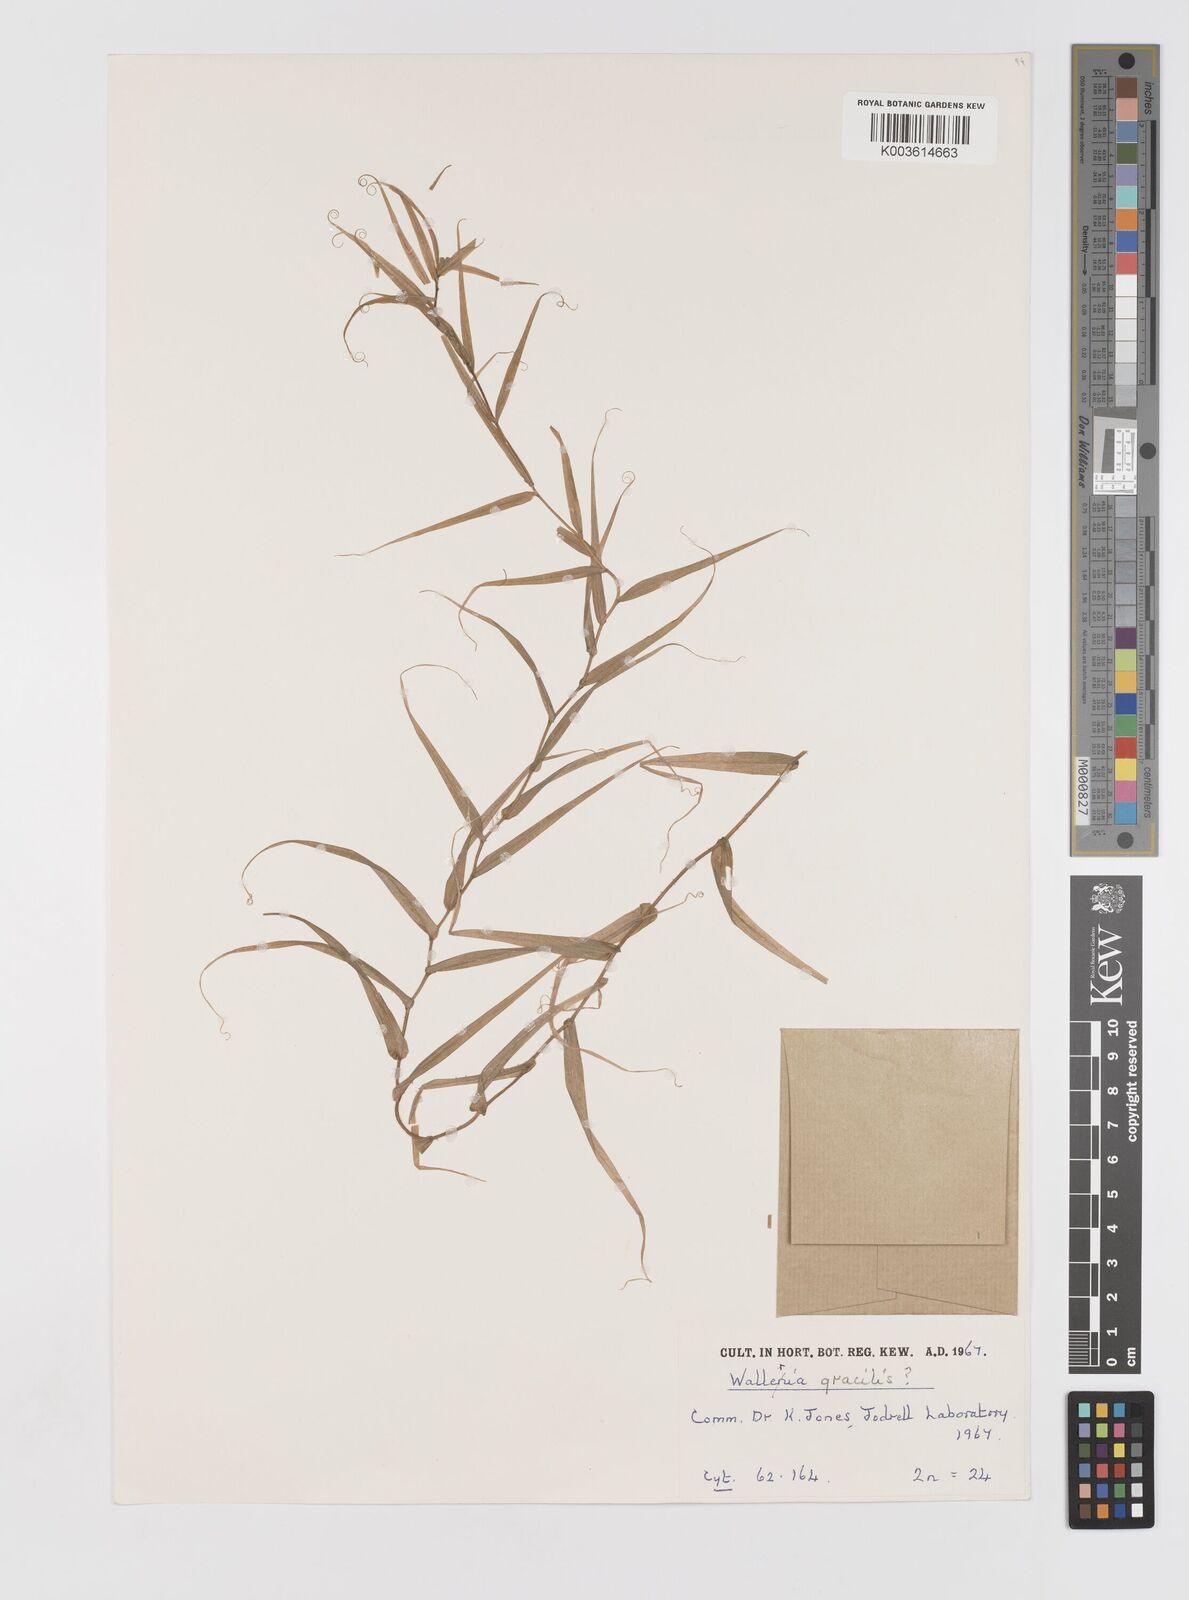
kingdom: Plantae
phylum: Tracheophyta
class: Liliopsida
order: Asparagales
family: Tecophilaeaceae
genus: Walleria
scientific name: Walleria gracilis
